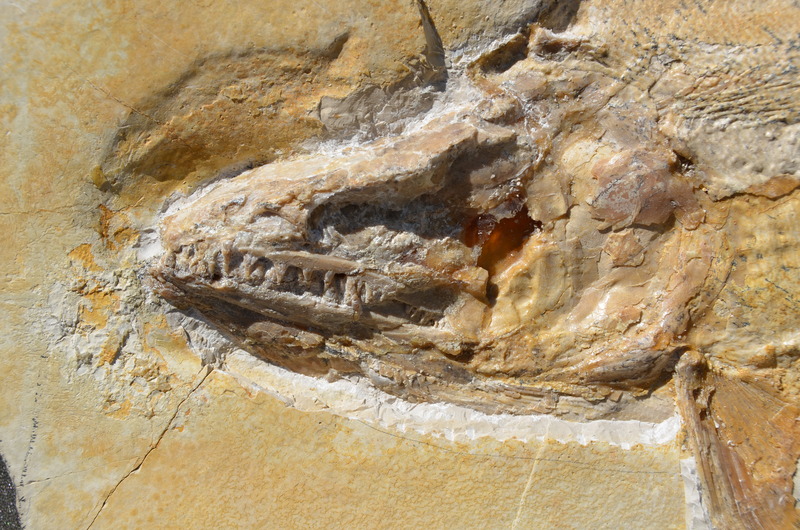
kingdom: Animalia
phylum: Chordata
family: Pachycormidae
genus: Hypsocormus
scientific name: Hypsocormus
